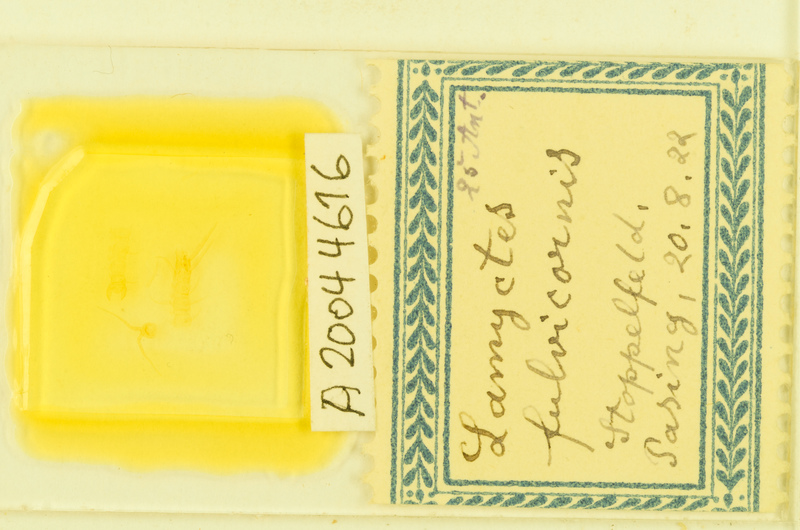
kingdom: Animalia
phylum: Arthropoda
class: Chilopoda
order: Lithobiomorpha
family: Henicopidae
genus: Lamyctes
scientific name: Lamyctes emarginatus
